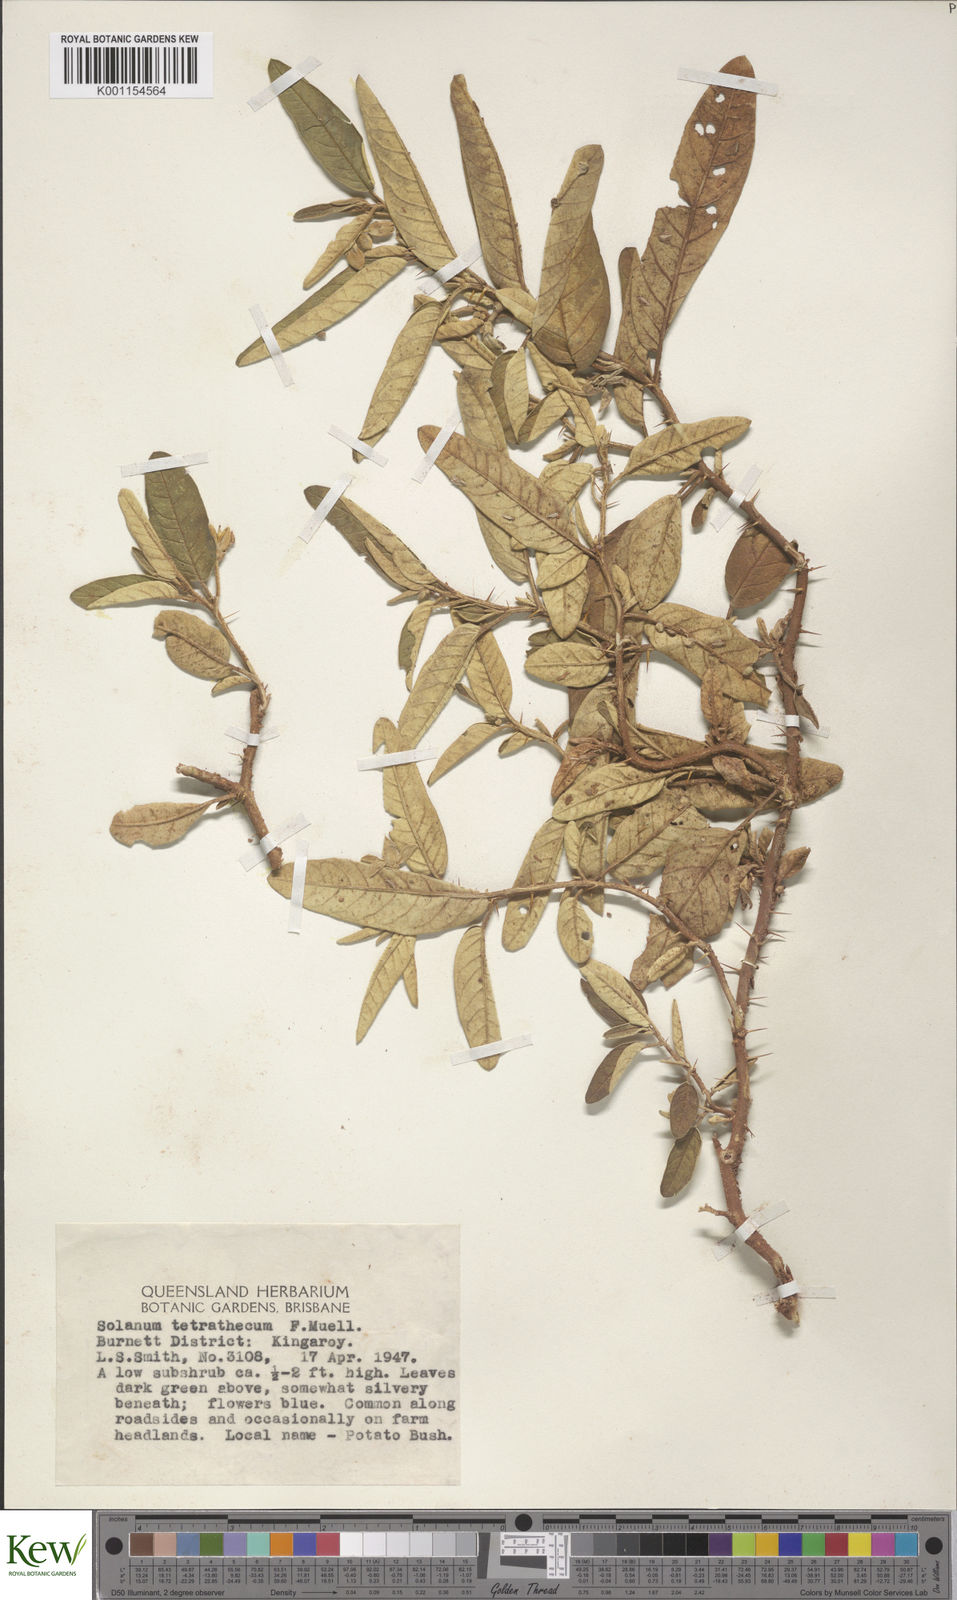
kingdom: Plantae
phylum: Tracheophyta
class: Magnoliopsida
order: Solanales
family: Solanaceae
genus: Solanum
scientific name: Solanum tetrathecum
